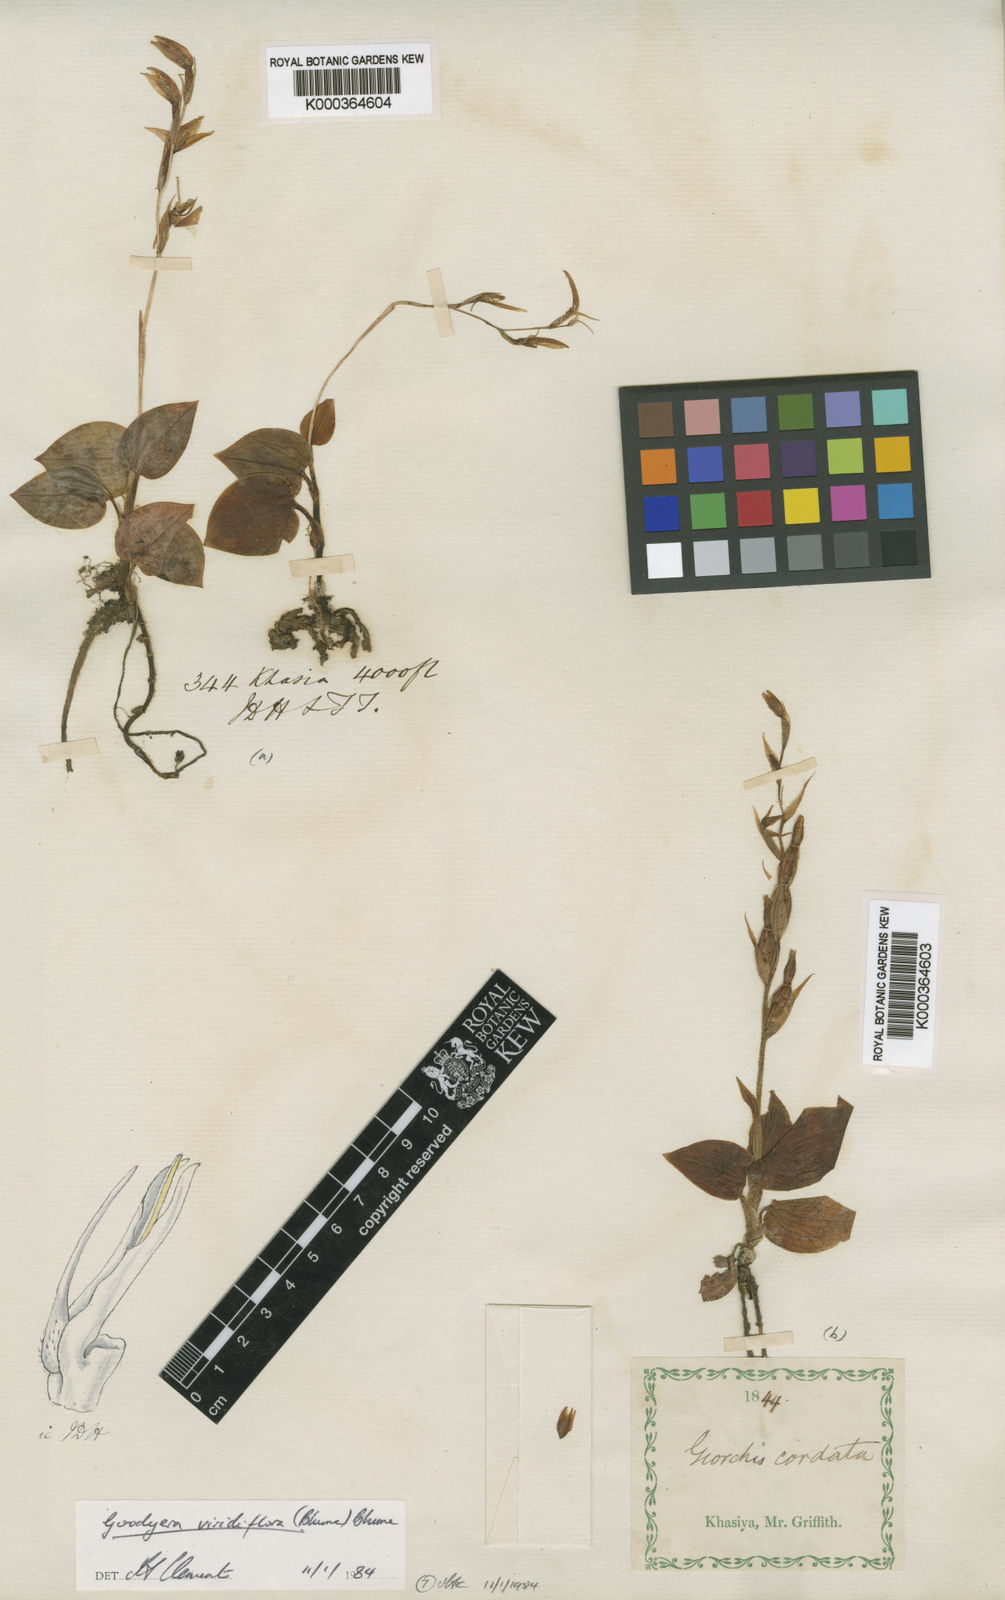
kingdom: Plantae
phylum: Tracheophyta
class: Liliopsida
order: Asparagales
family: Orchidaceae
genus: Goodyera
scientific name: Goodyera viridiflora
